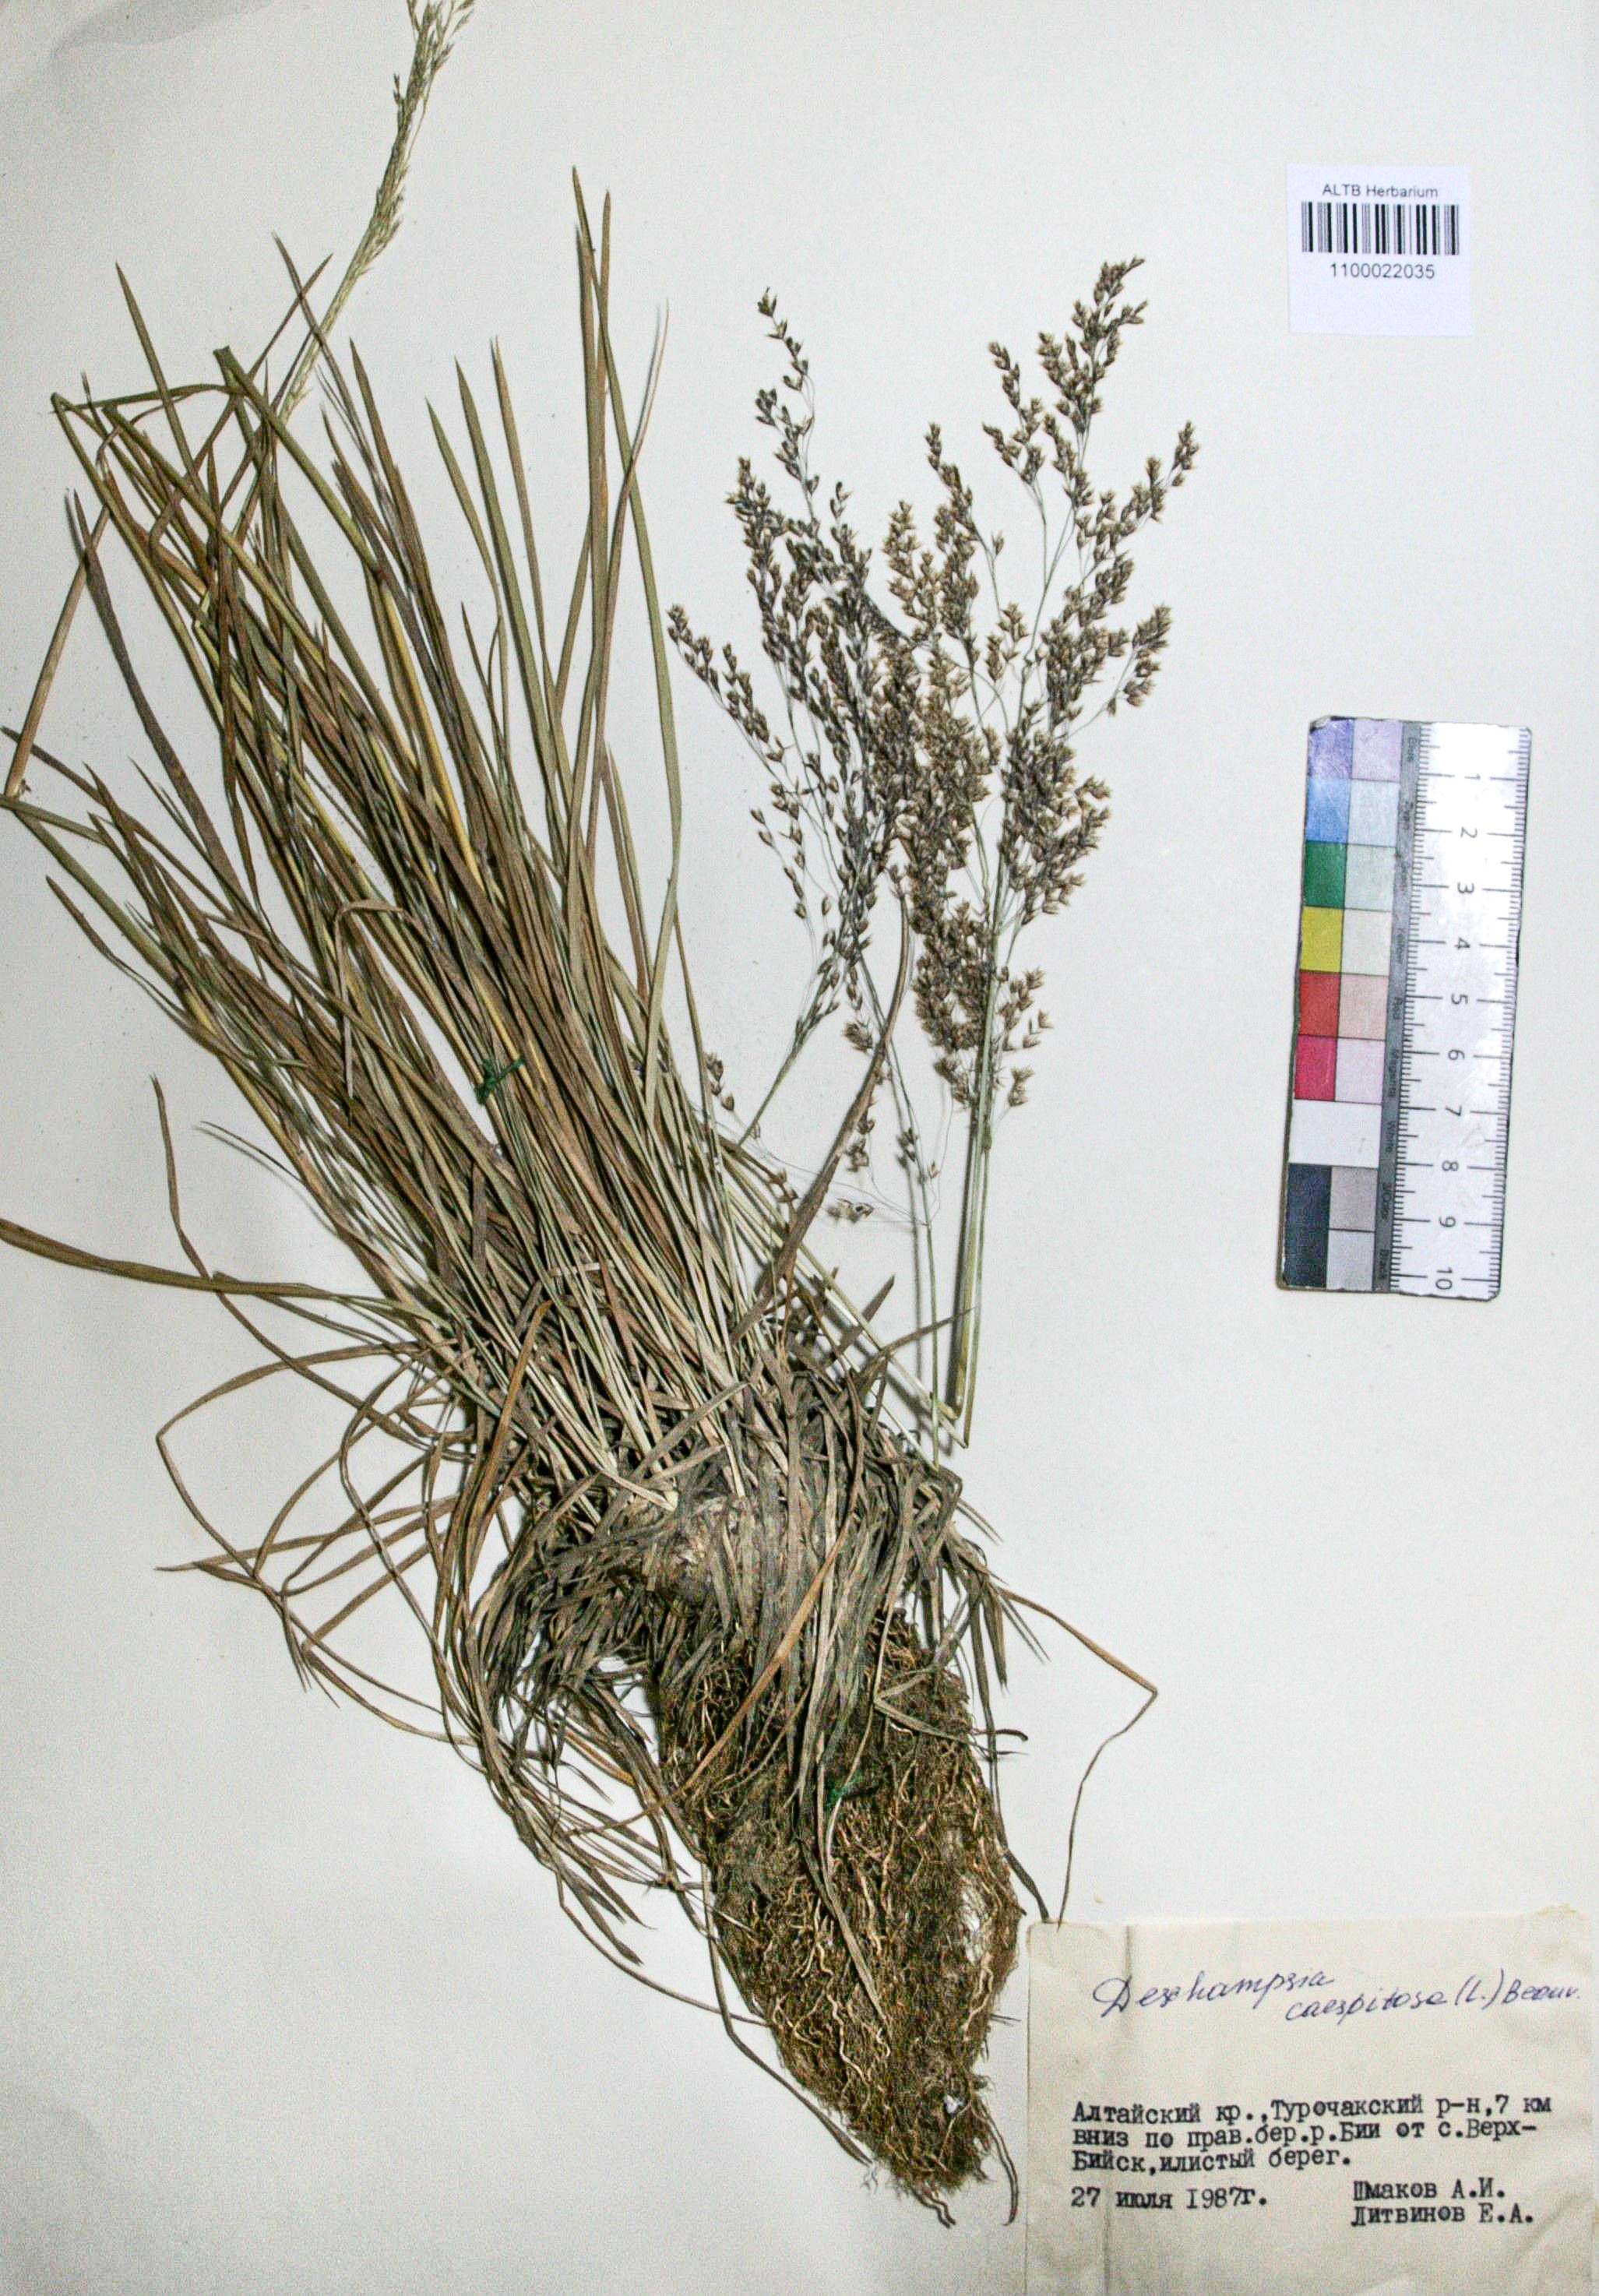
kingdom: Plantae
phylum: Tracheophyta
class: Liliopsida
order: Poales
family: Poaceae
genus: Deschampsia
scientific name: Deschampsia cespitosa
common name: Tufted hair-grass
